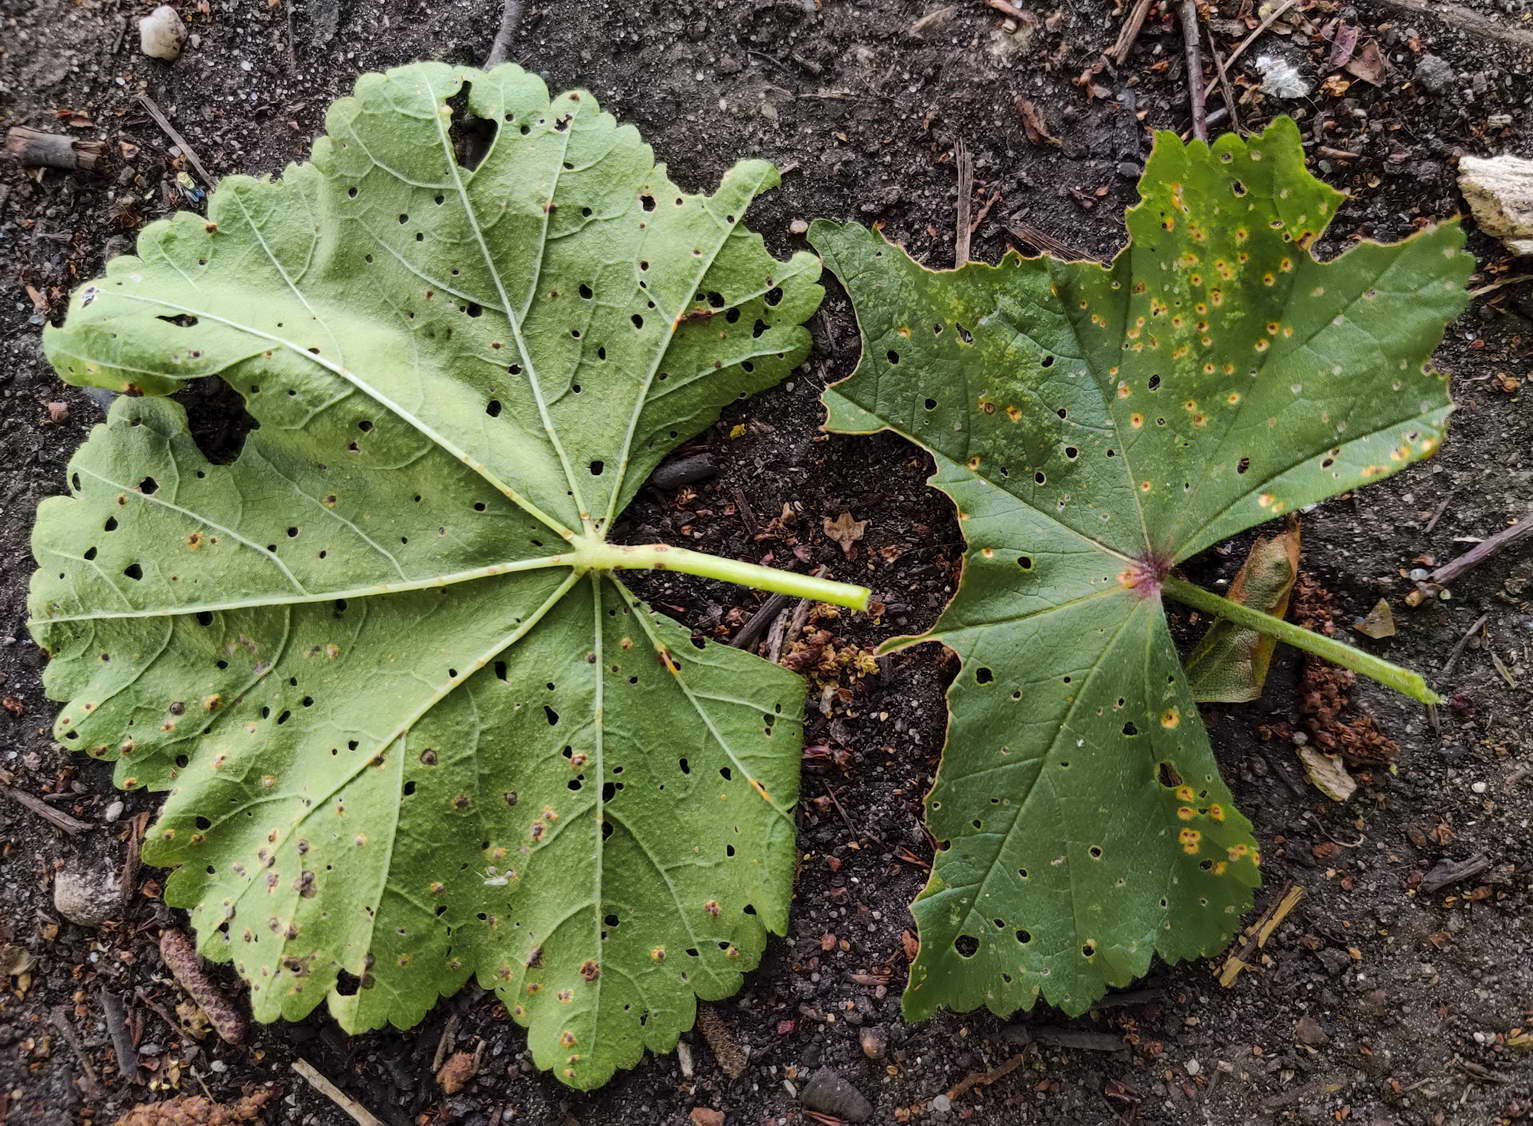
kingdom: Fungi
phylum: Basidiomycota
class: Pucciniomycetes
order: Pucciniales
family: Pucciniaceae
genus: Puccinia
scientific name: Puccinia malvacearum
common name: stokrose-tvecellerust
